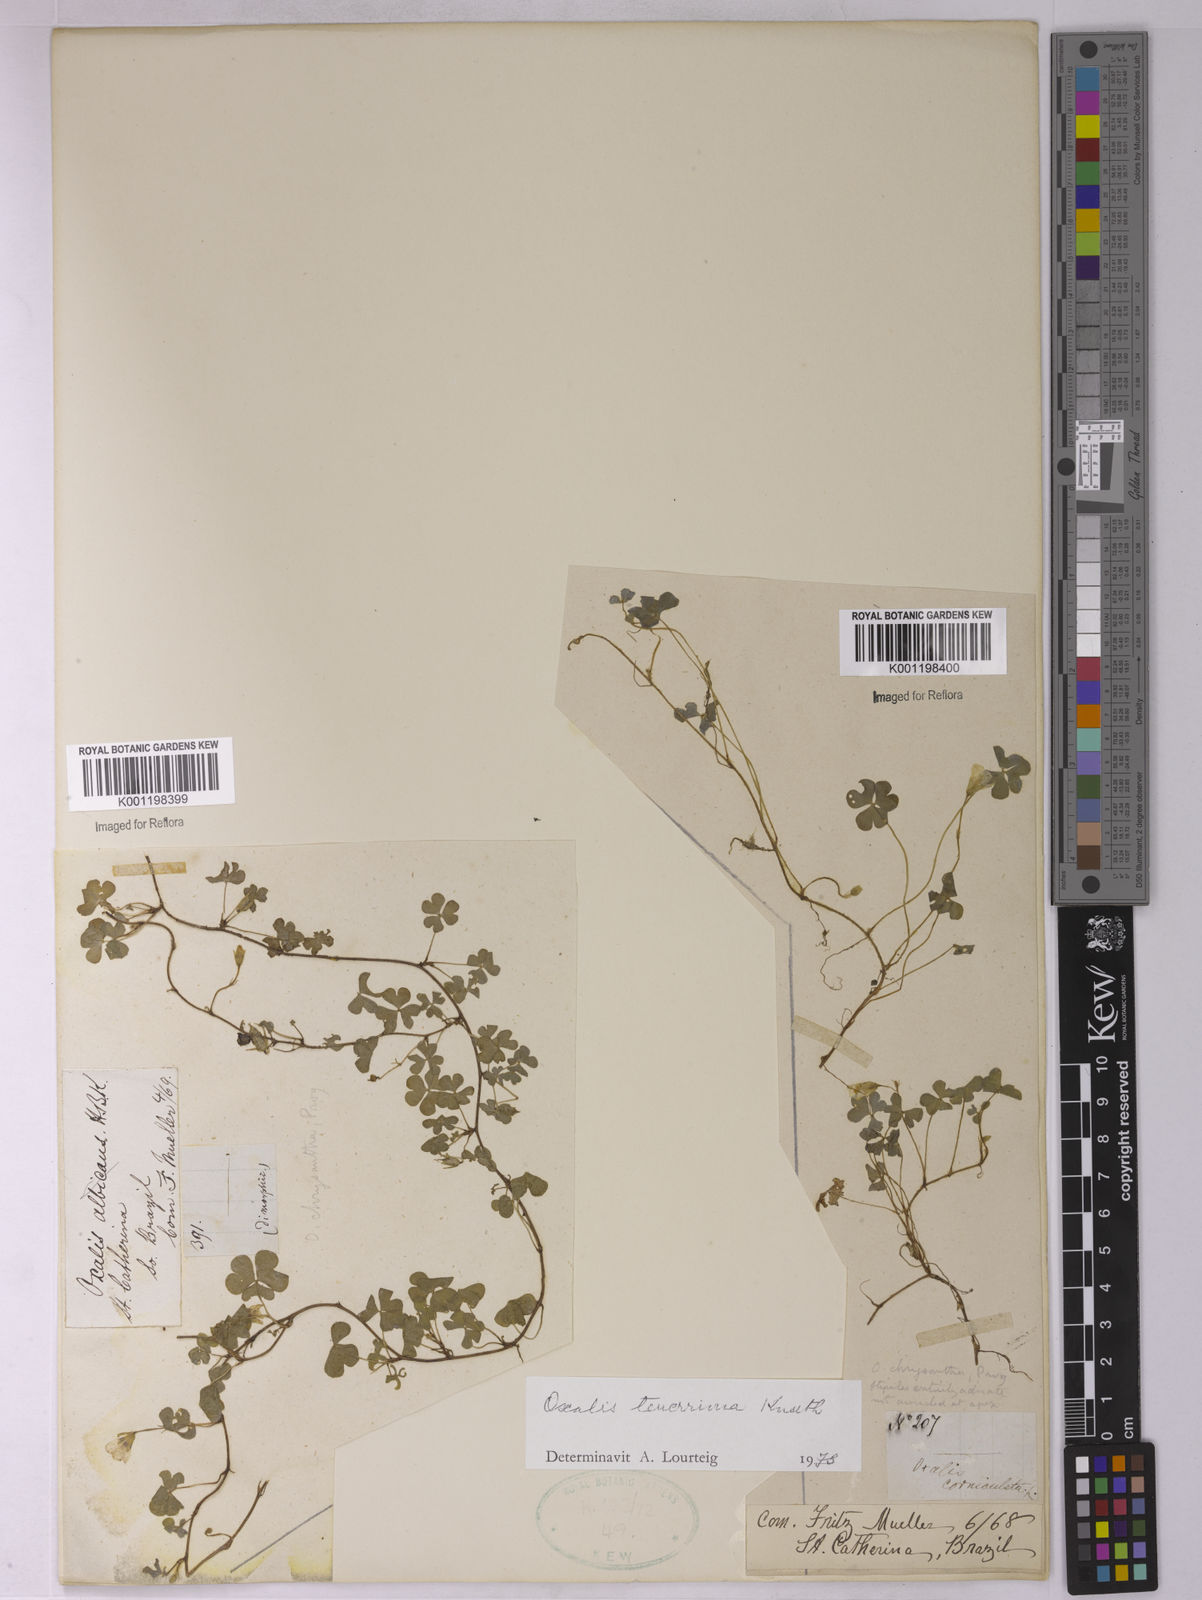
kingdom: Plantae
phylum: Tracheophyta
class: Magnoliopsida
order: Oxalidales
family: Oxalidaceae
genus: Oxalis
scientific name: Oxalis tenerrima
